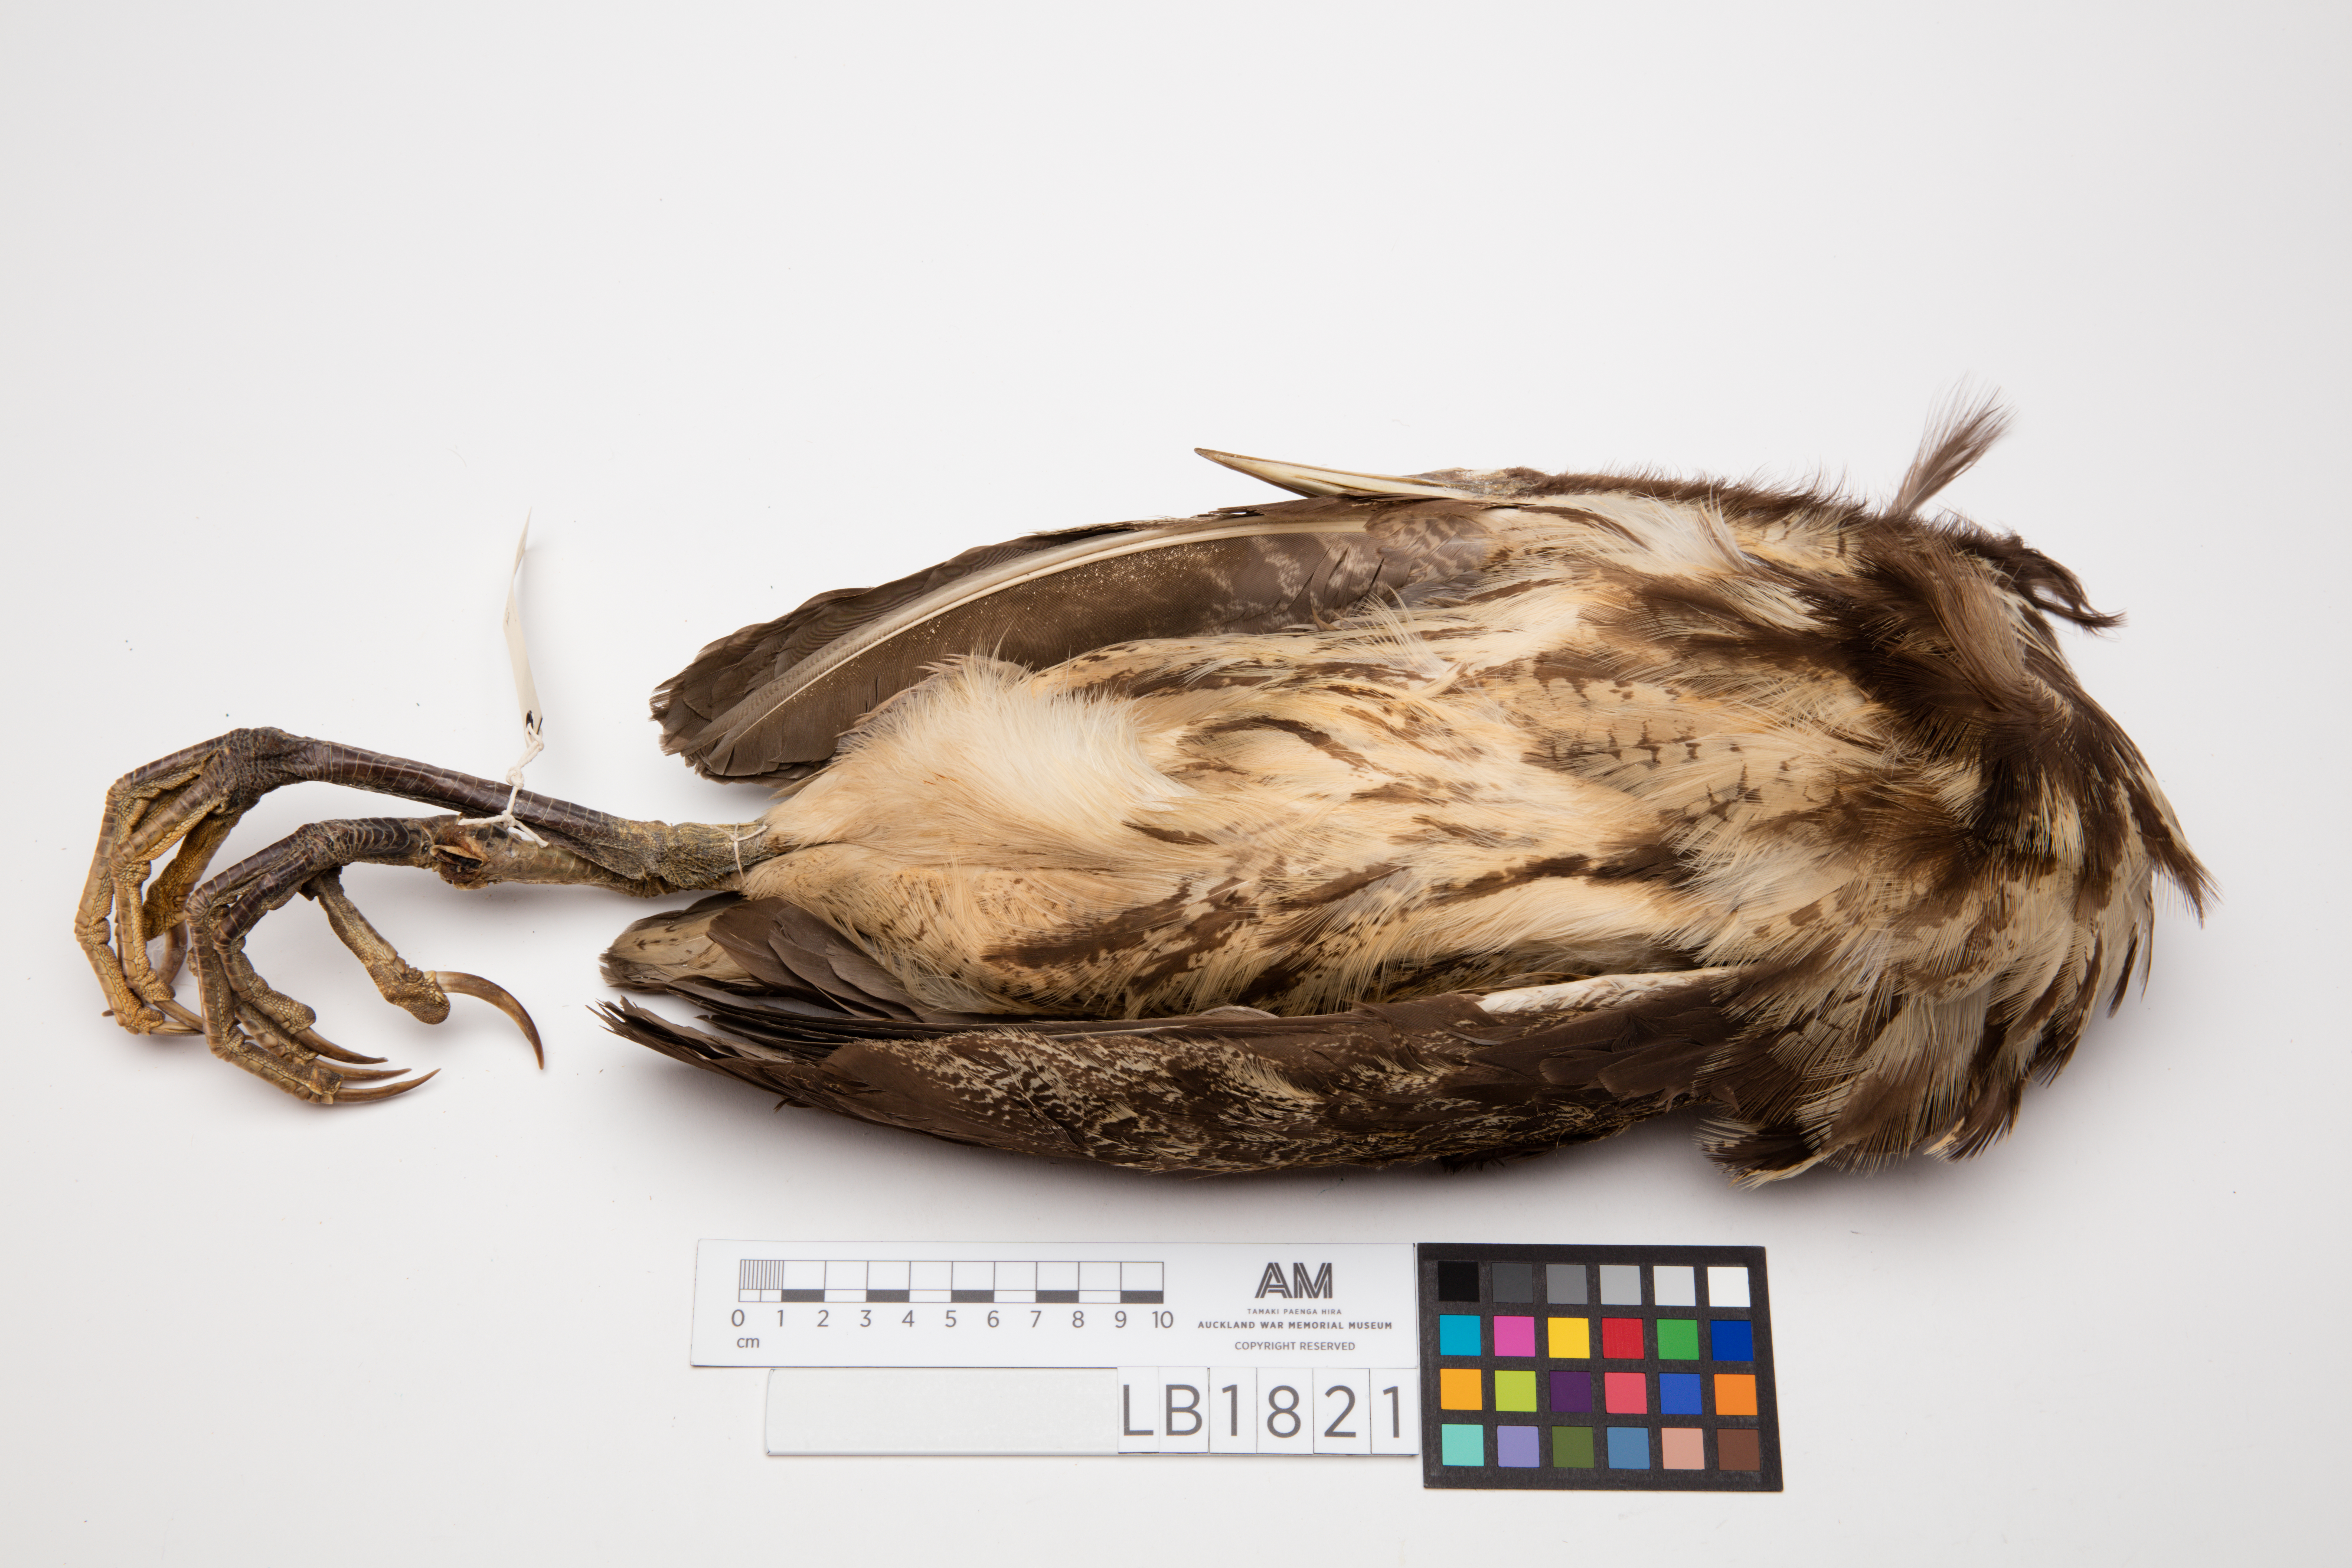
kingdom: Animalia
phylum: Chordata
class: Aves
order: Pelecaniformes
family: Ardeidae
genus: Botaurus
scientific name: Botaurus poiciloptilus
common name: Australasian bittern
